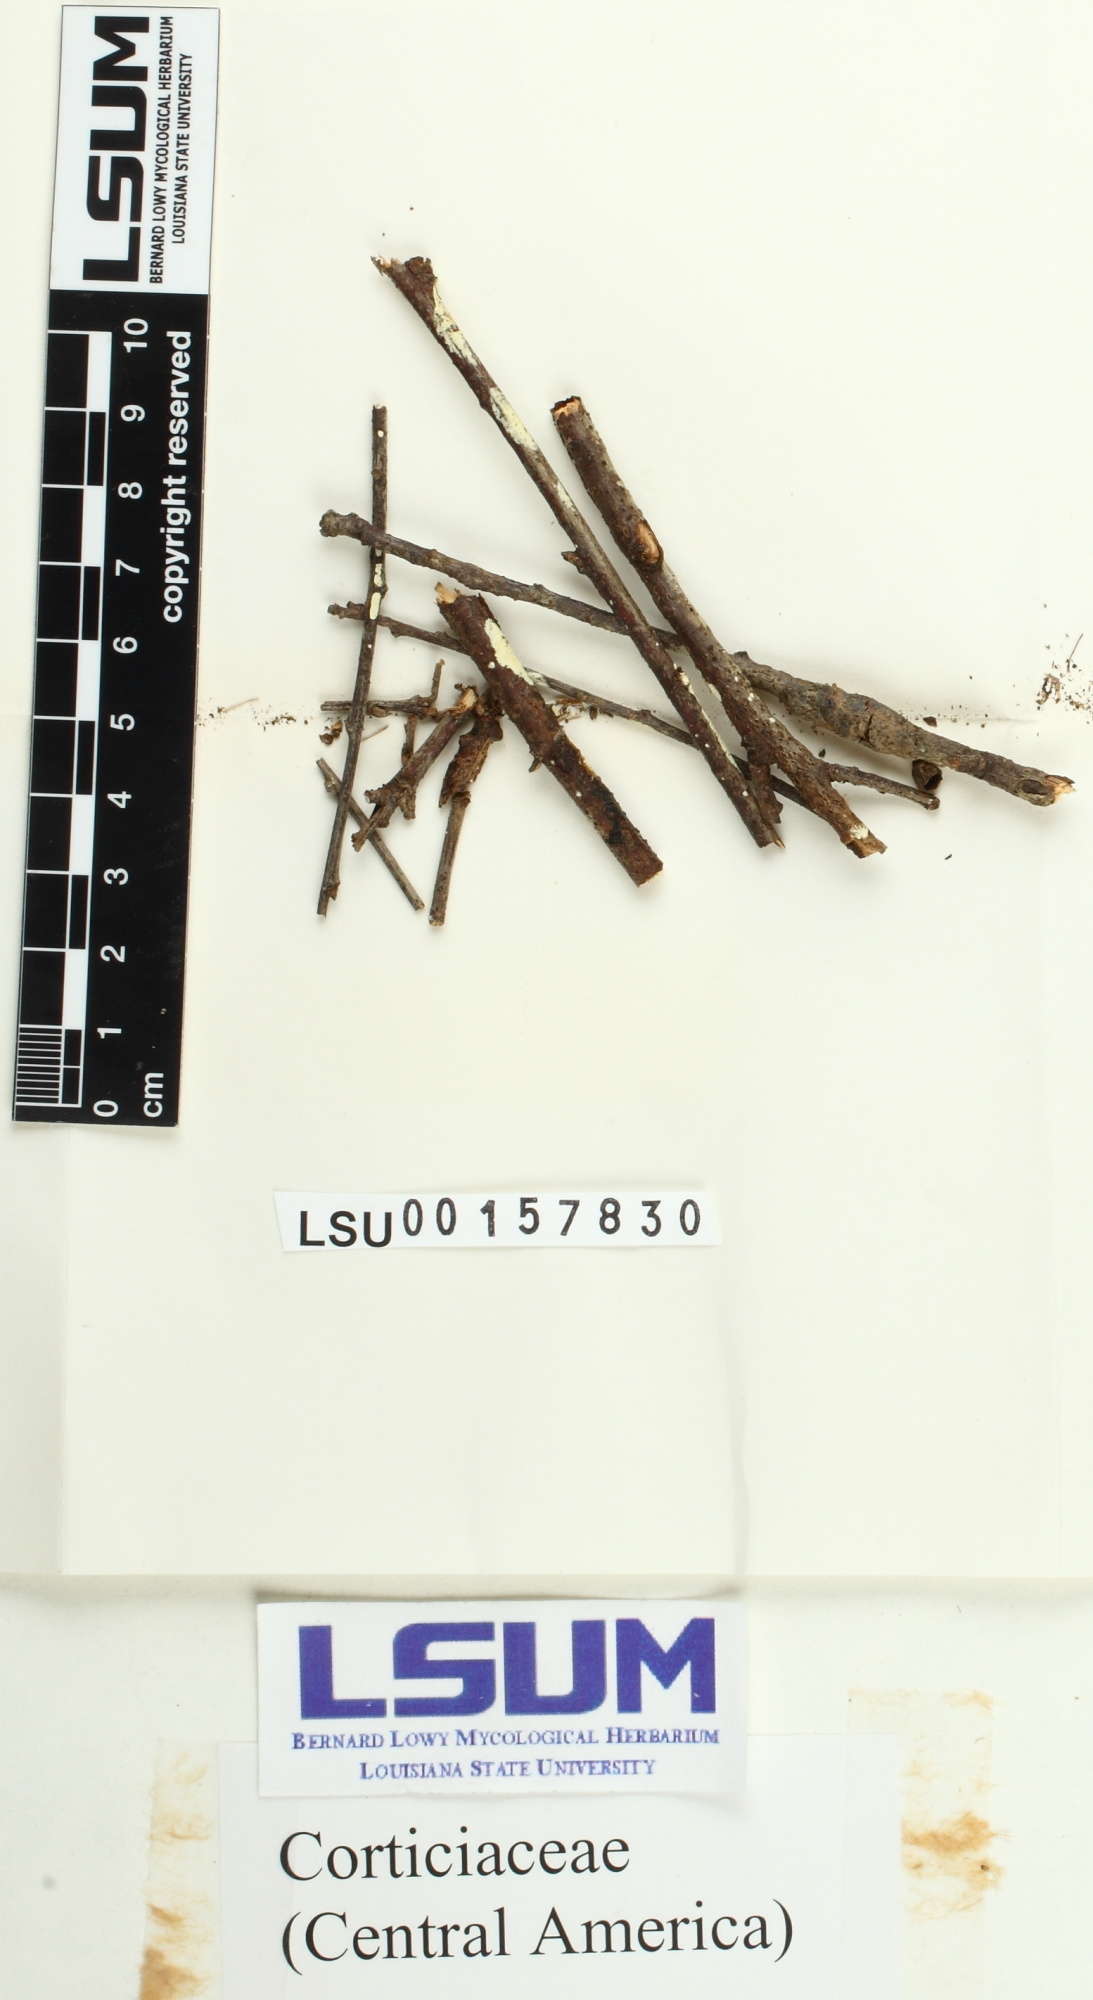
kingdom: Fungi
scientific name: Fungi
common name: Fungi
